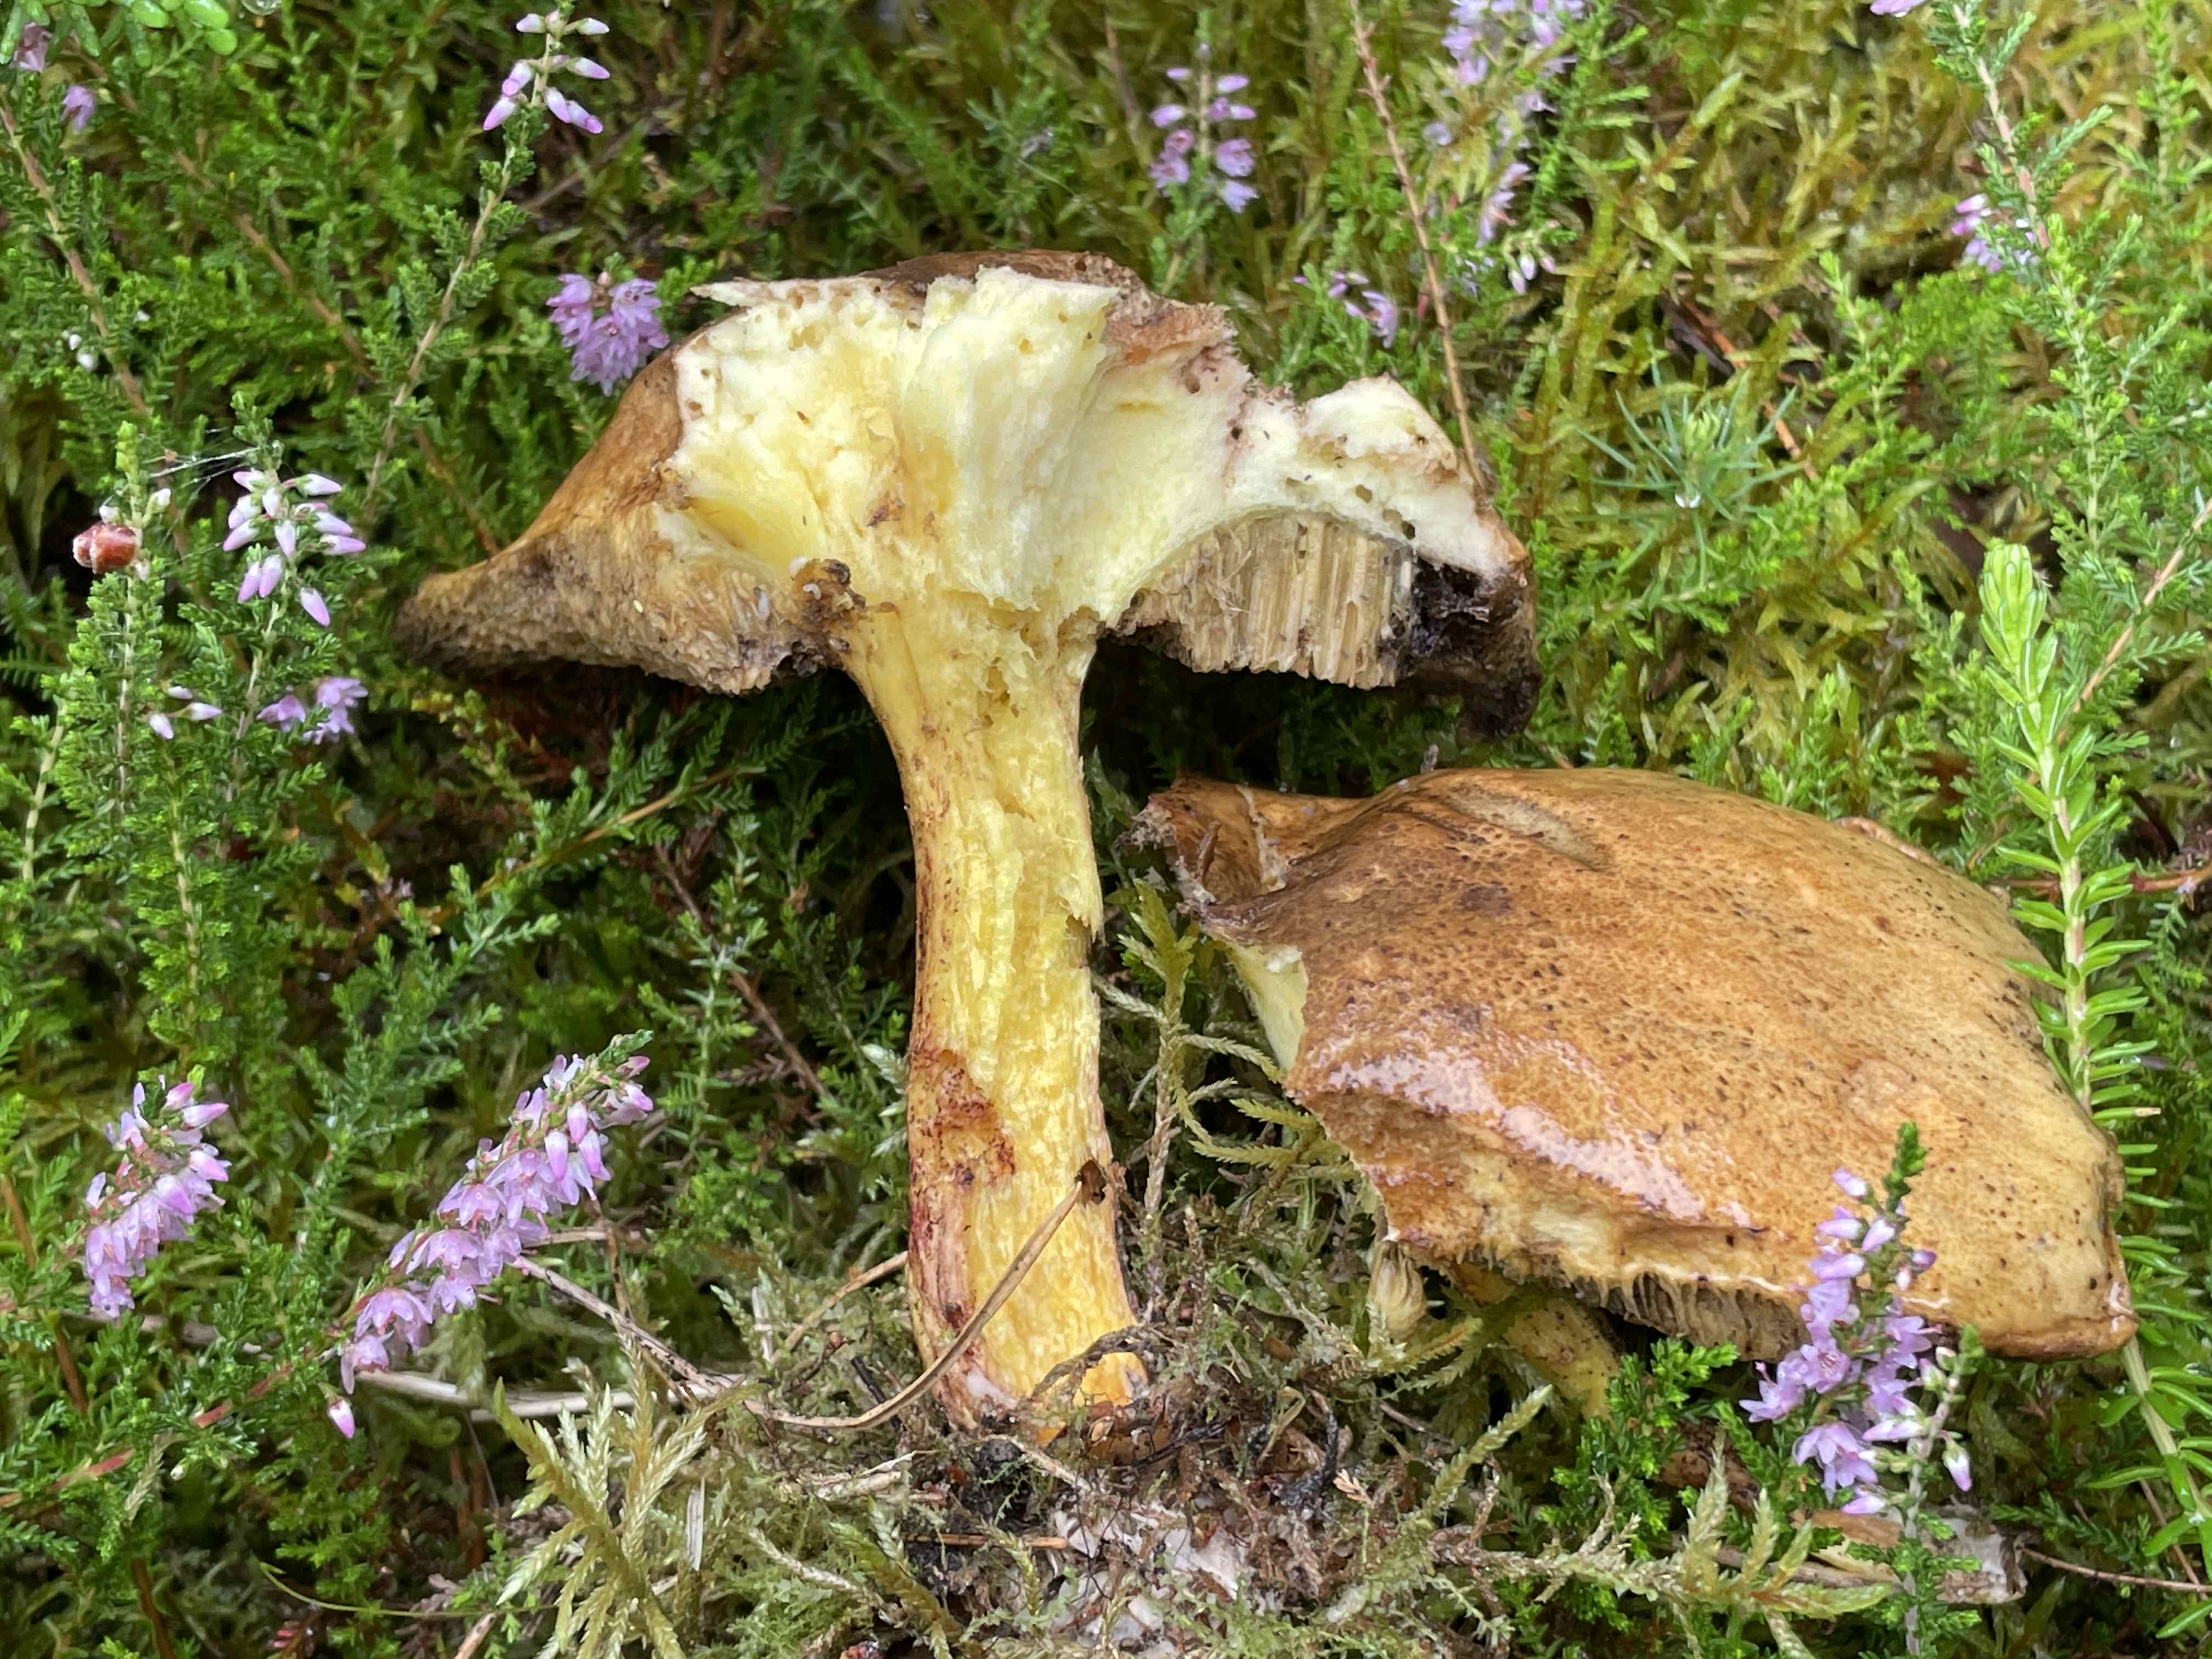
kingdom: Fungi
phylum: Basidiomycota
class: Agaricomycetes
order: Boletales
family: Suillaceae
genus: Suillus
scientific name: Suillus granulatus
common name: kornet slimrørhat
